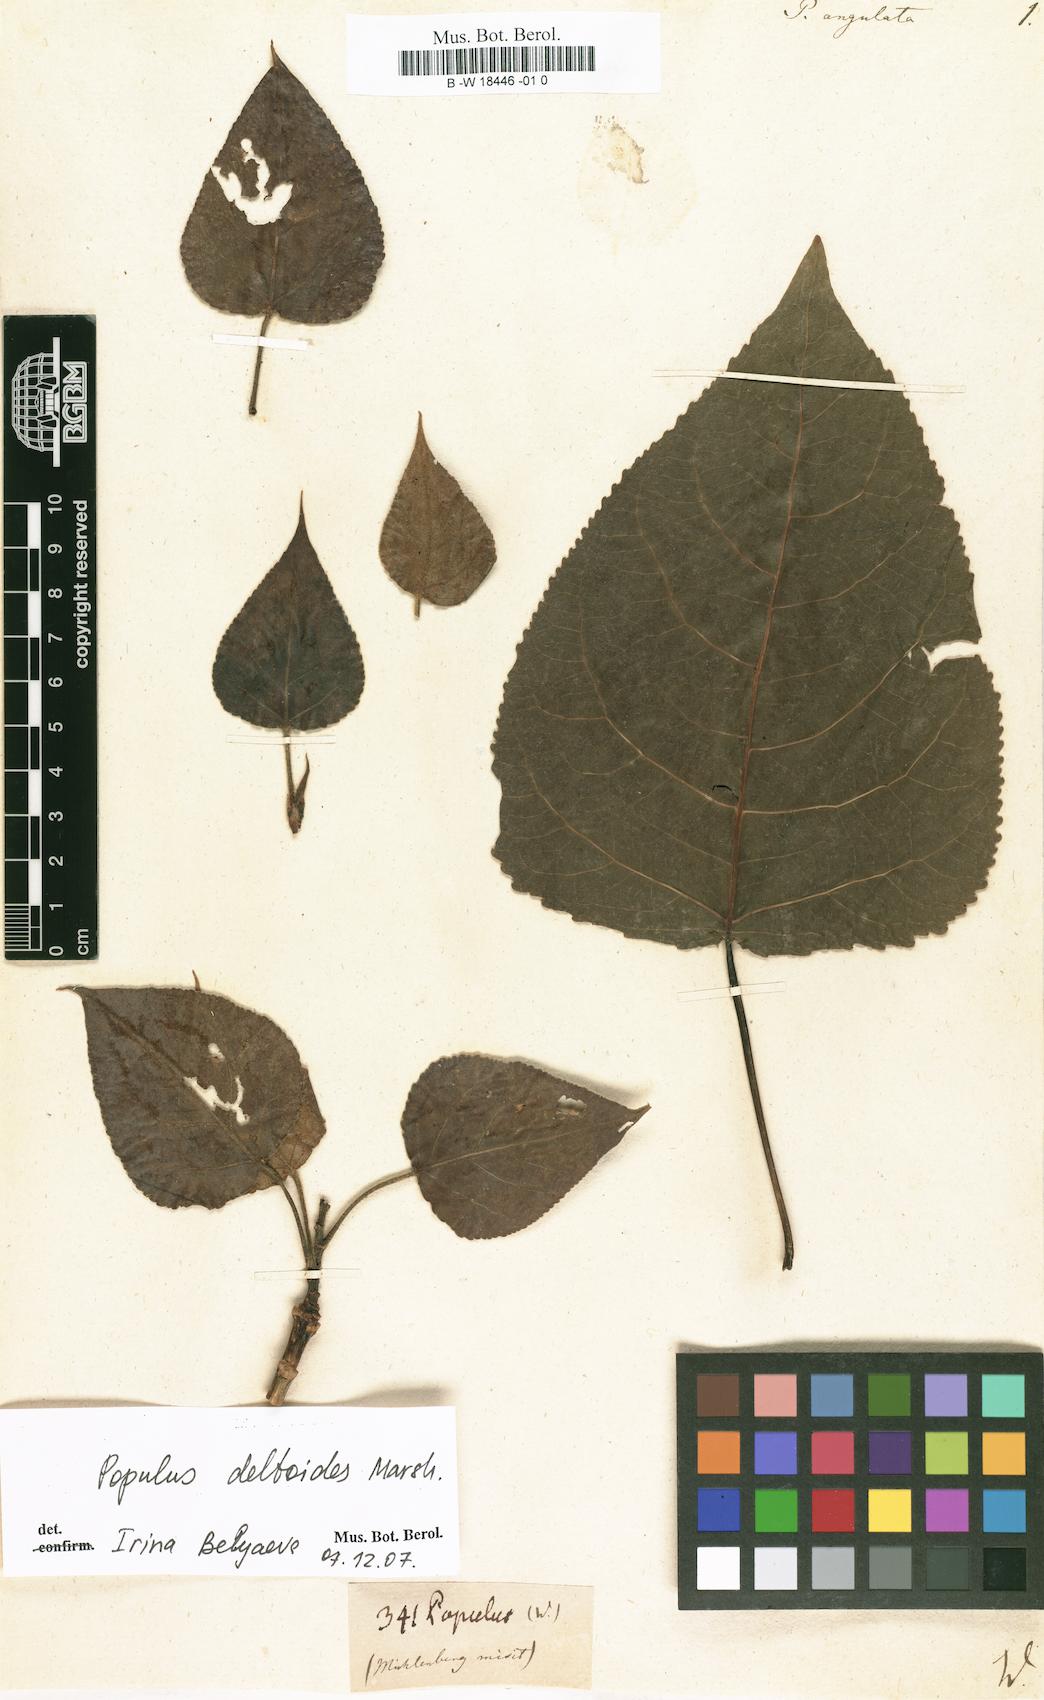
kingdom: Plantae
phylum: Tracheophyta
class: Magnoliopsida
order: Malpighiales
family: Salicaceae
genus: Populus
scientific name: Populus deltoides
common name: Eastern cottonwood
